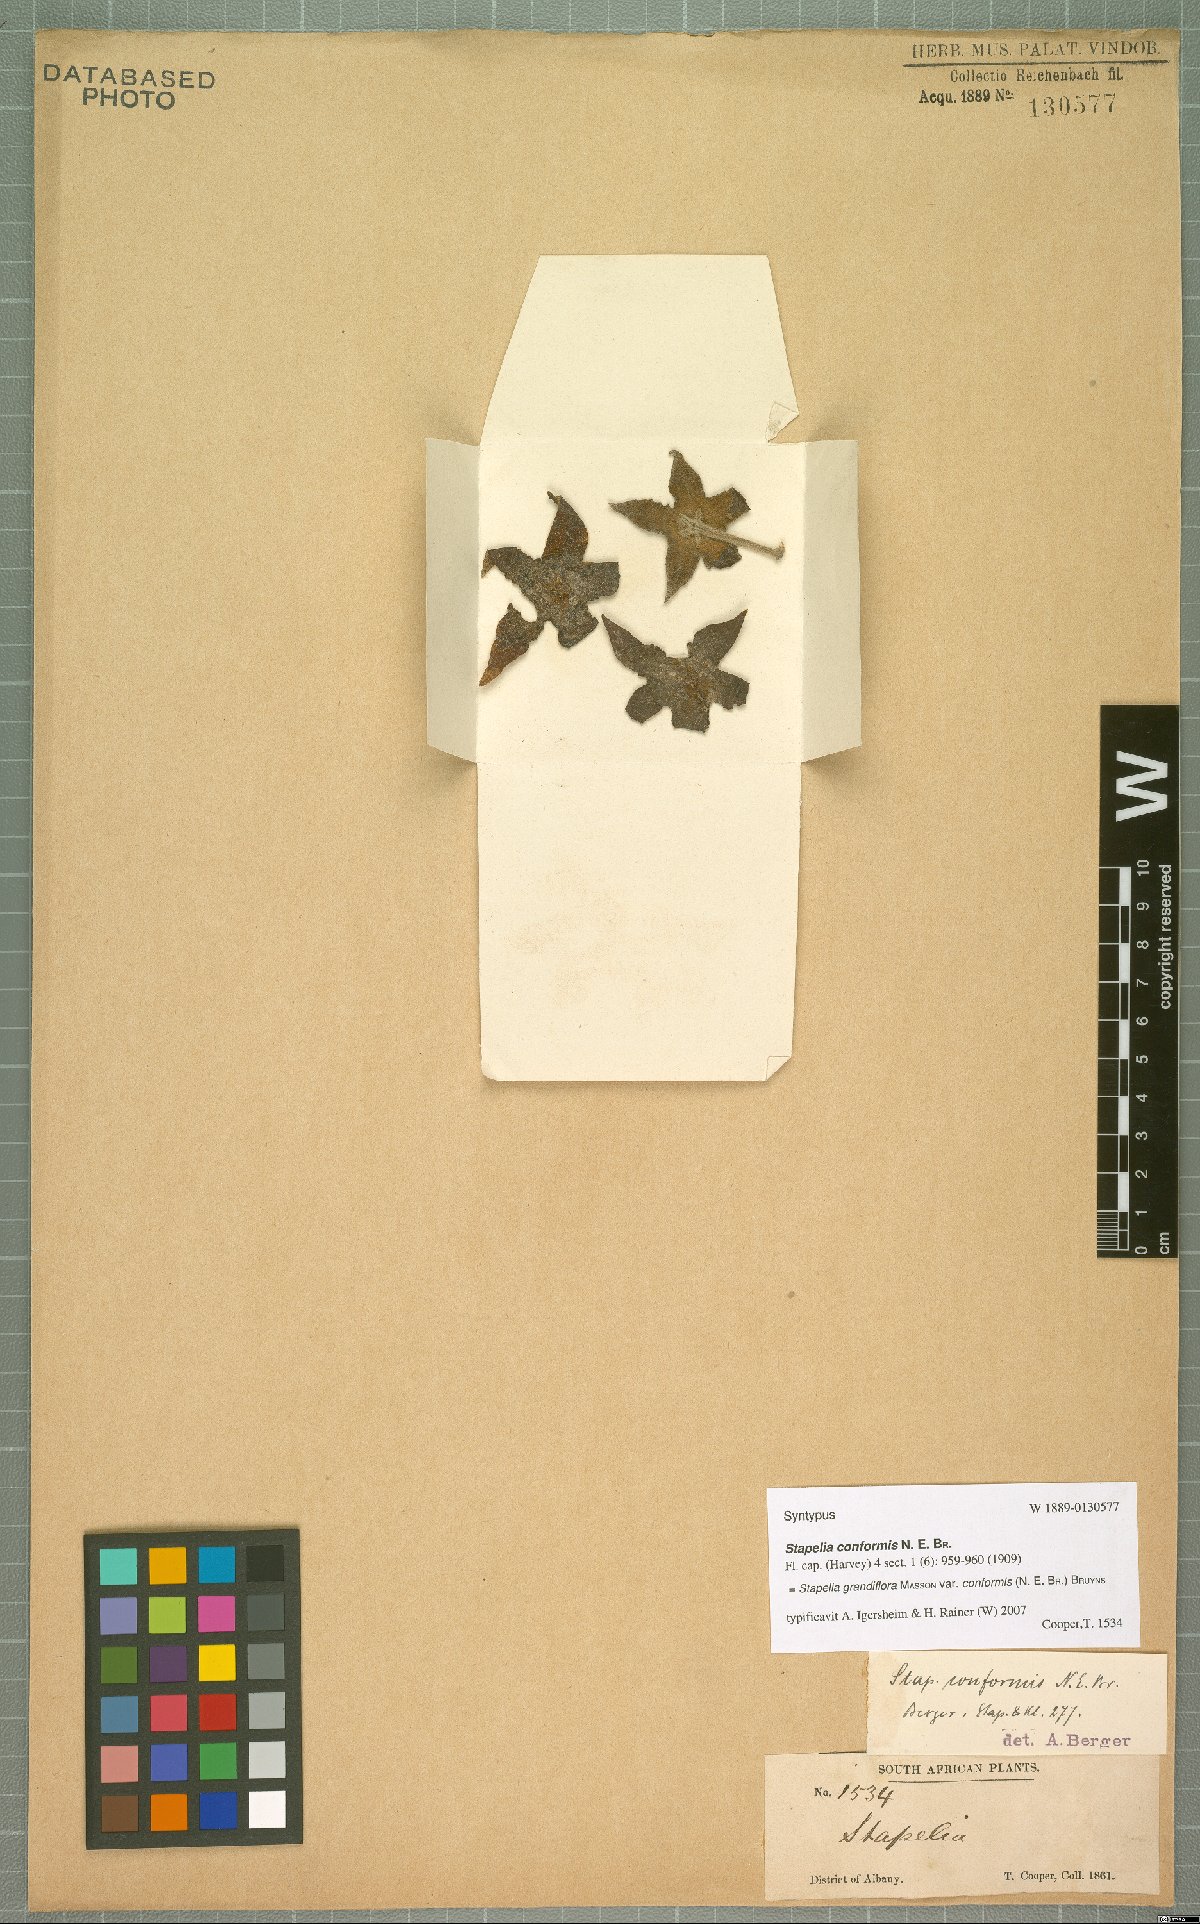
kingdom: Plantae
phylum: Tracheophyta
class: Magnoliopsida
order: Gentianales
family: Apocynaceae
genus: Ceropegia
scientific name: Ceropegia grandiflora
